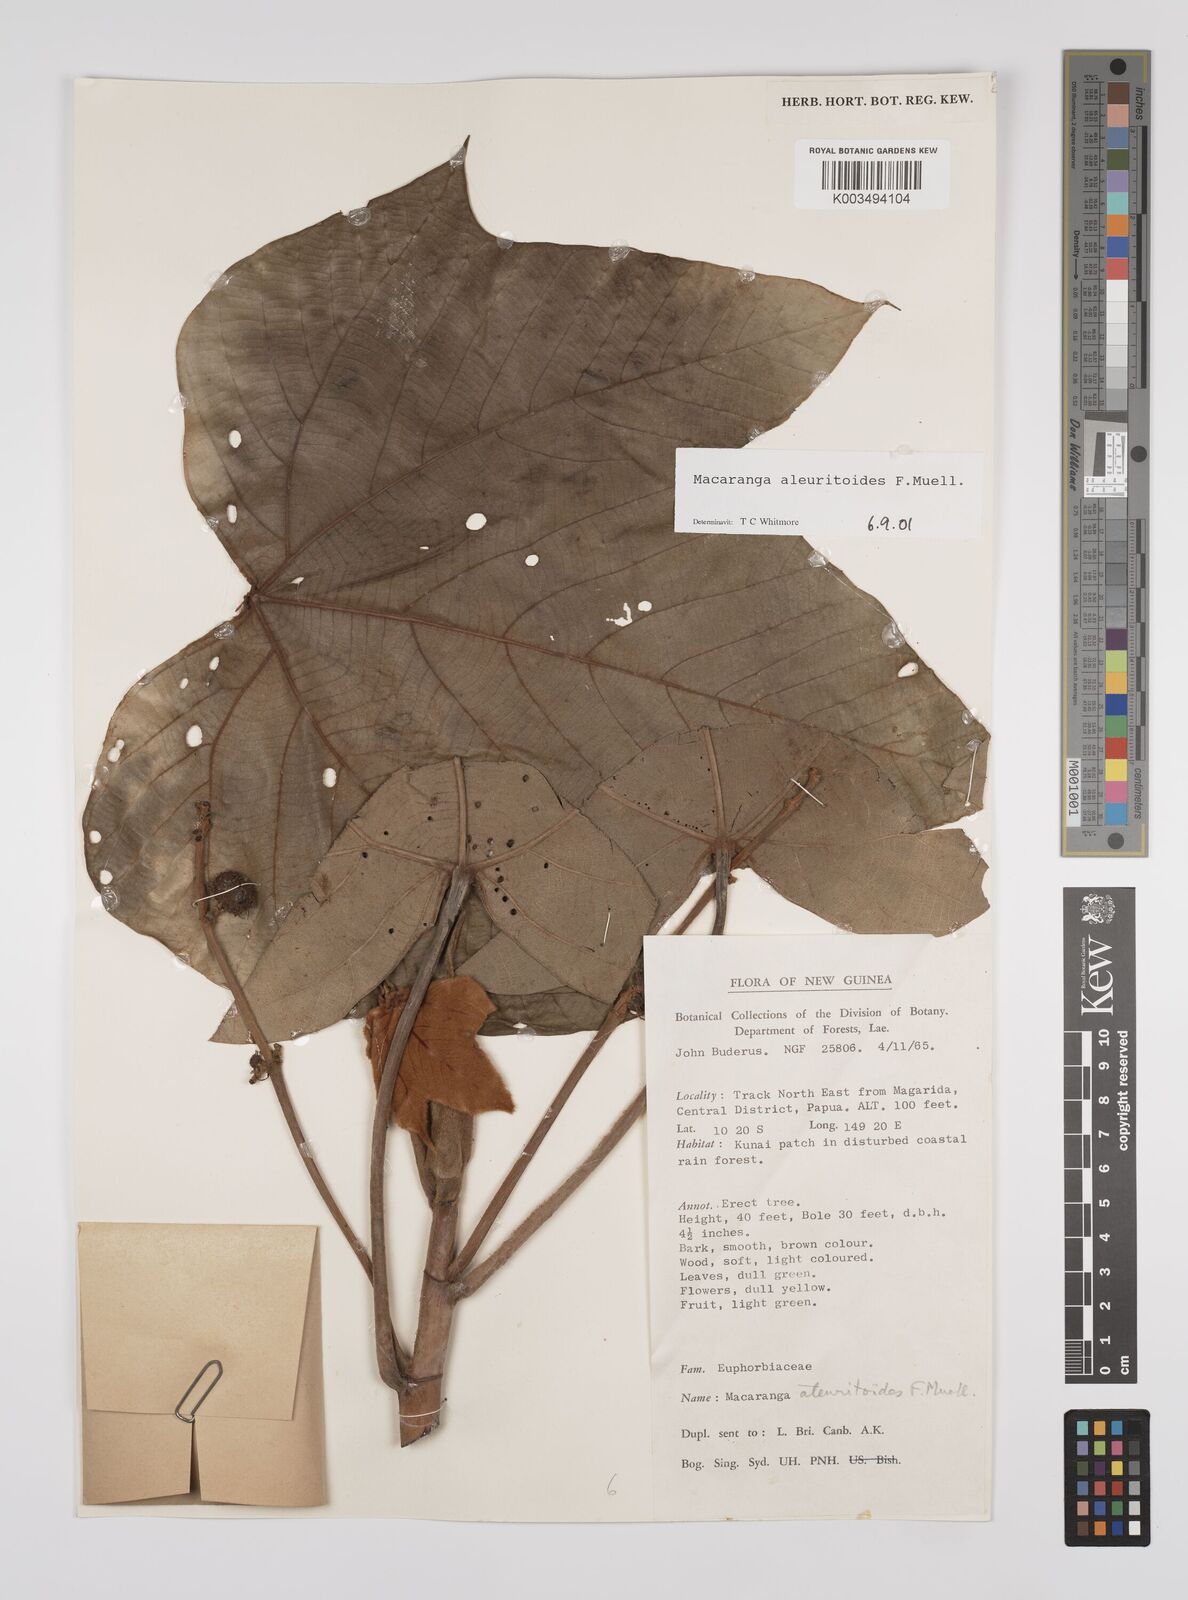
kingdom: Plantae
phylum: Tracheophyta
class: Magnoliopsida
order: Malpighiales
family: Euphorbiaceae
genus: Macaranga
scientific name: Macaranga aleuritoides
